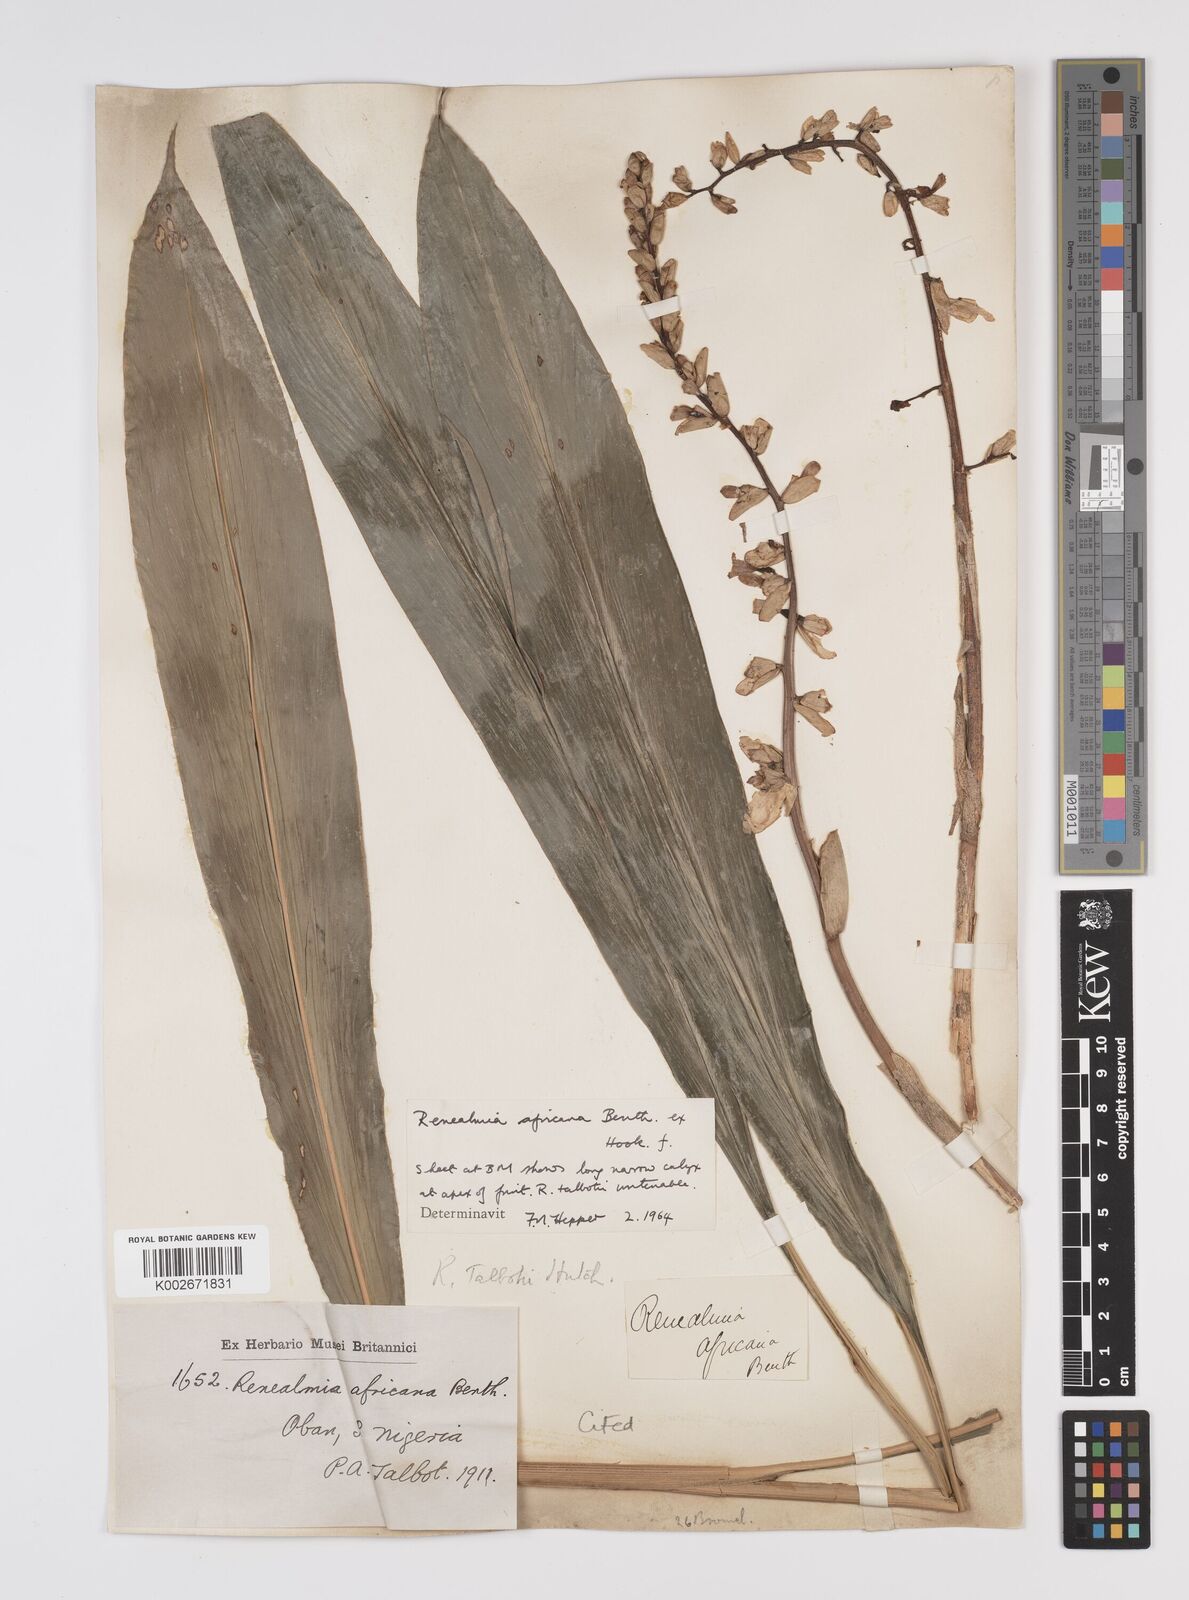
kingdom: Plantae
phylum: Tracheophyta
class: Liliopsida
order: Zingiberales
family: Zingiberaceae
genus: Renealmia
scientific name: Renealmia africana
